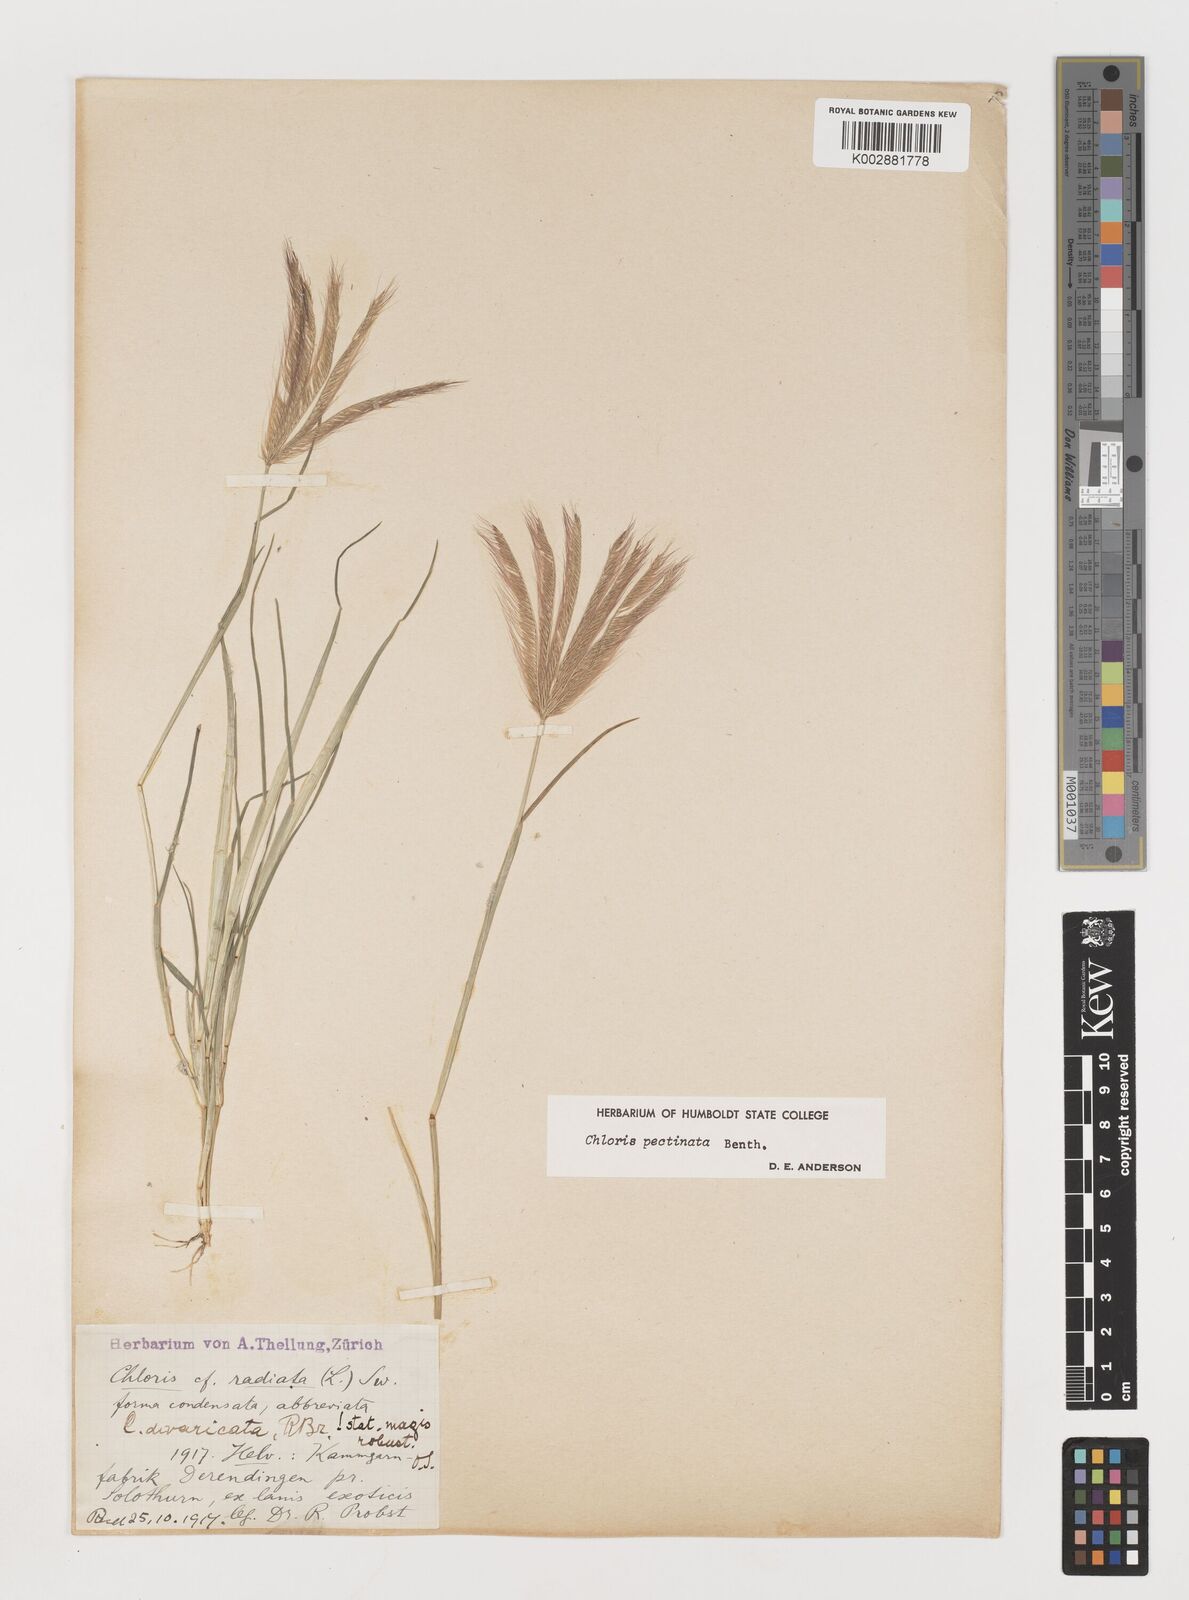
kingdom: Plantae
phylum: Tracheophyta
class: Liliopsida
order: Poales
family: Poaceae
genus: Chloris
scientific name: Chloris pectinata
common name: Comb windmill grass
